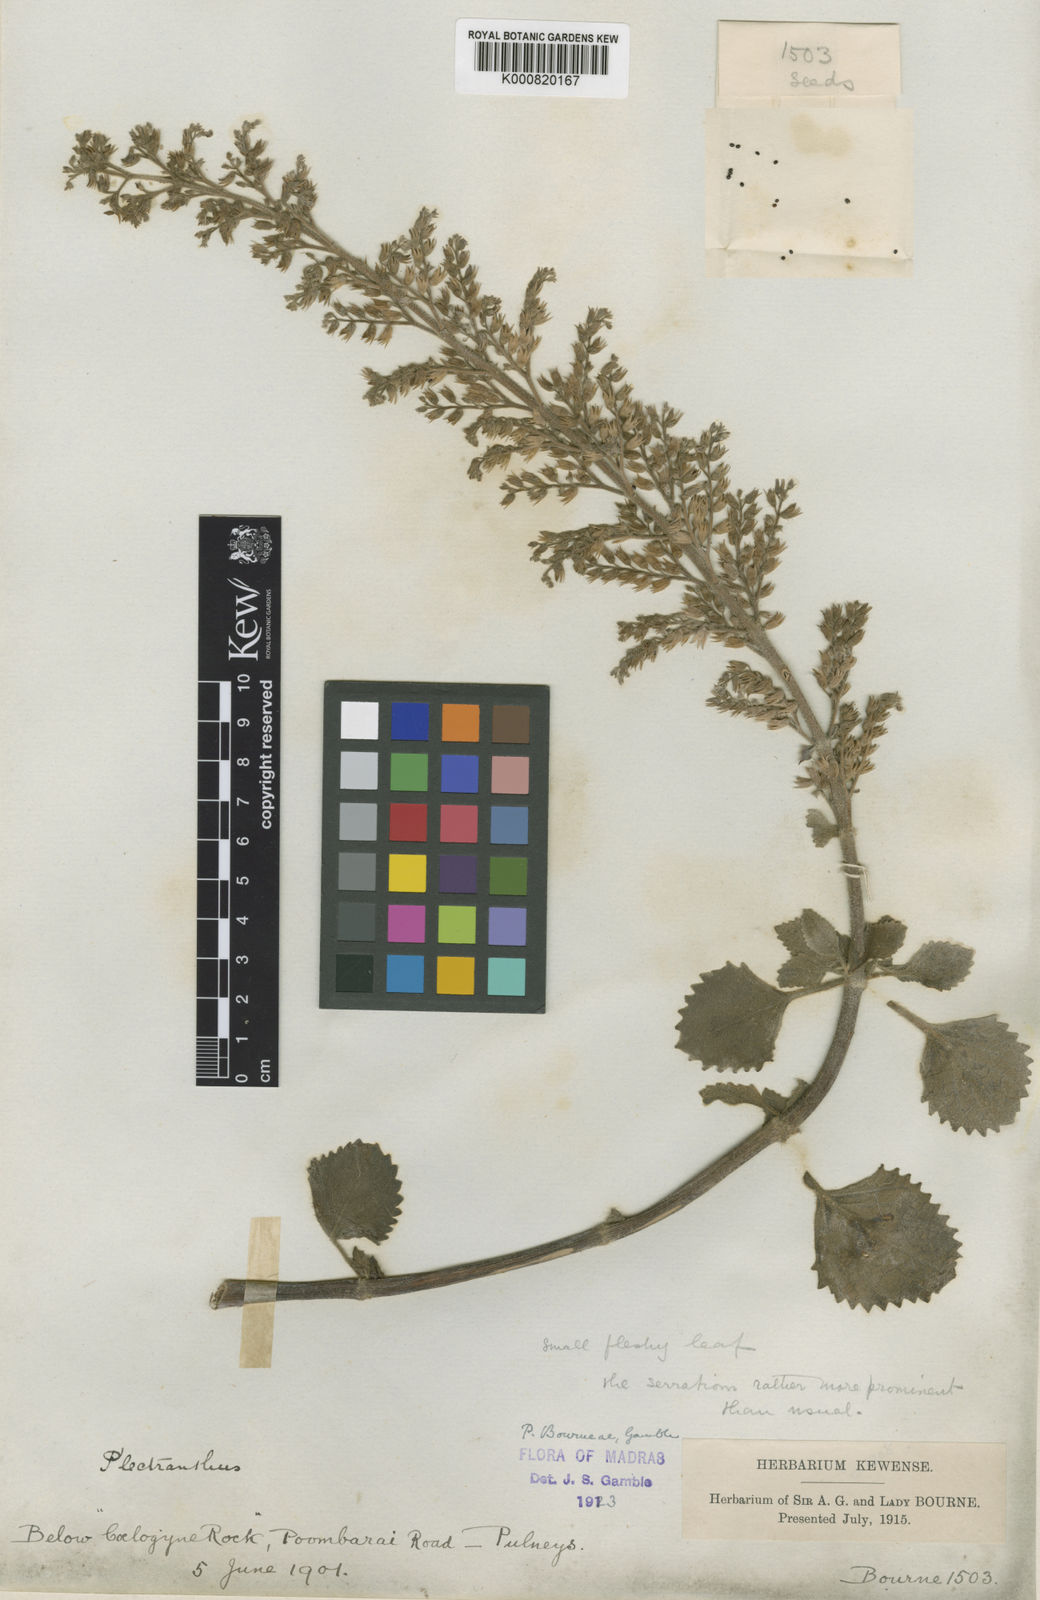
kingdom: Plantae
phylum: Tracheophyta
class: Magnoliopsida
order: Lamiales
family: Lamiaceae
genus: Coleus
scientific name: Coleus bourneae
